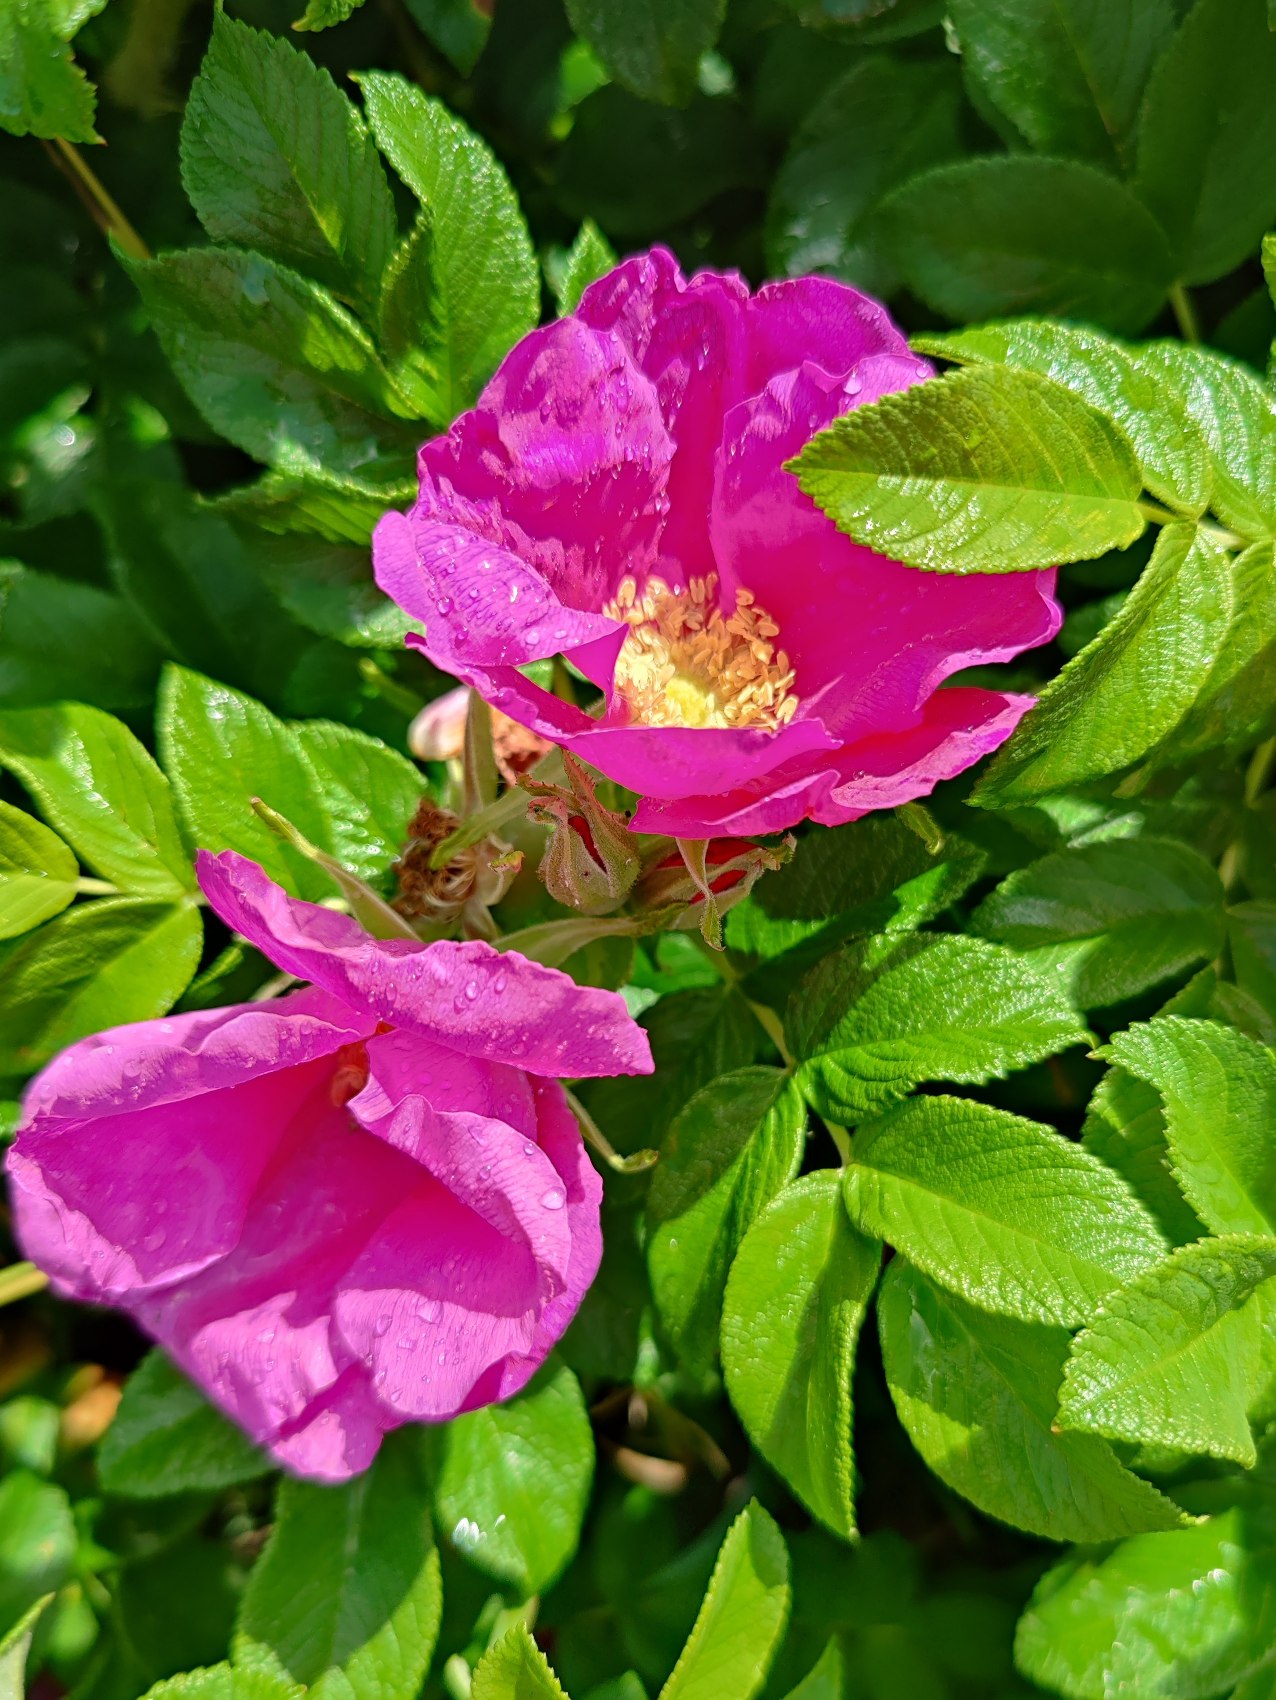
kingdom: Plantae
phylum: Tracheophyta
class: Magnoliopsida
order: Rosales
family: Rosaceae
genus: Rosa
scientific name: Rosa rugosa
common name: Rynket rose
